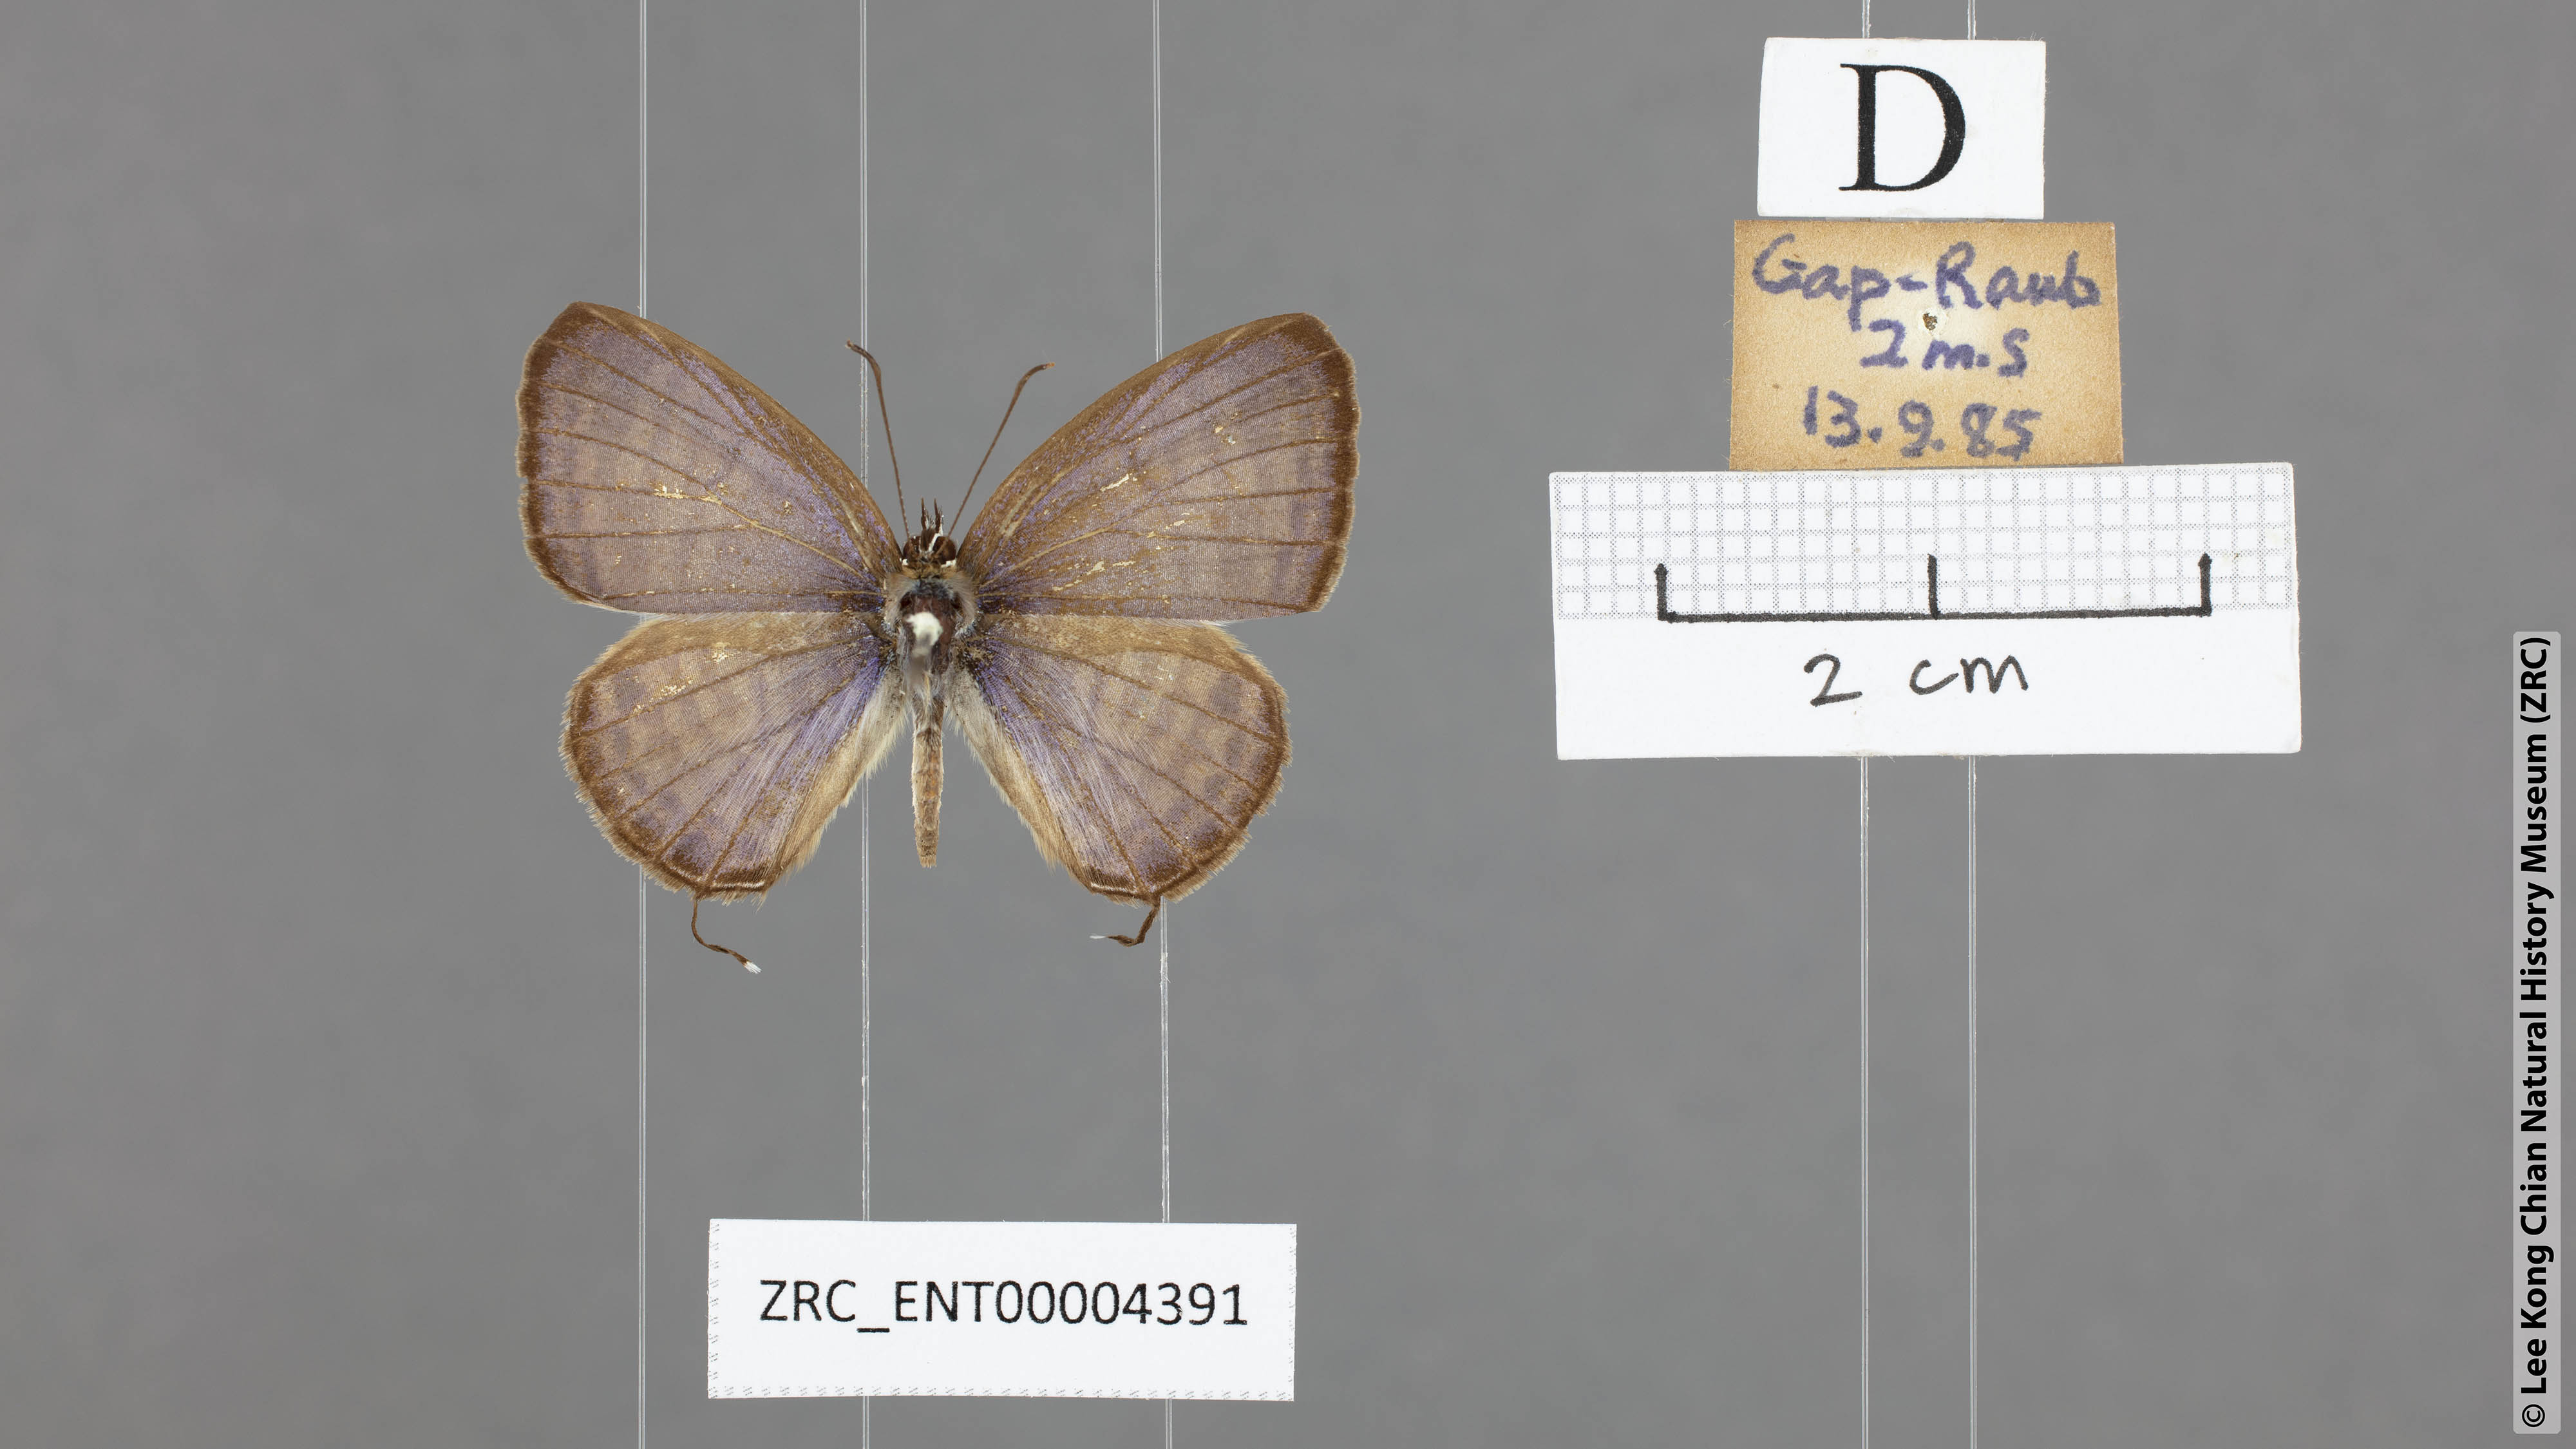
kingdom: Animalia
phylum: Arthropoda
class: Insecta
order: Lepidoptera
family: Lycaenidae
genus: Nacaduba
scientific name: Nacaduba angusta
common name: White four-line blue
